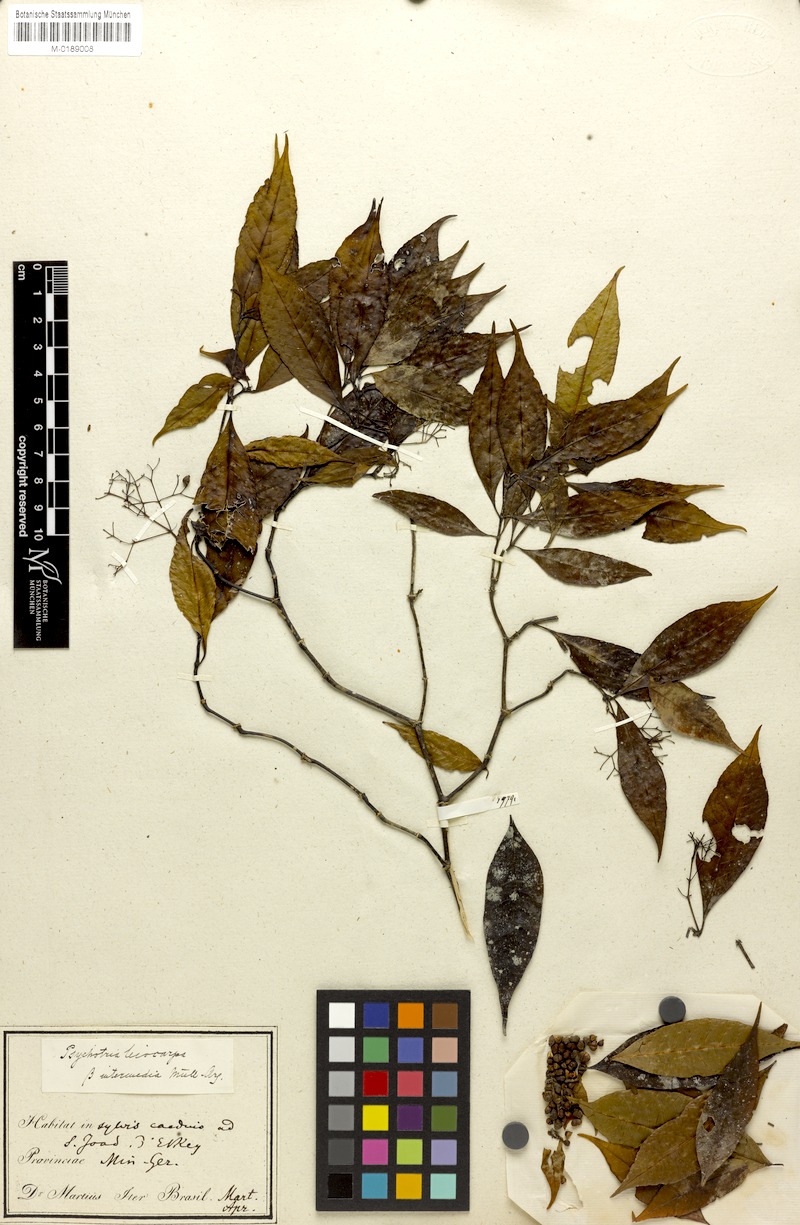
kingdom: Plantae
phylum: Tracheophyta
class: Magnoliopsida
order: Gentianales
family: Rubiaceae
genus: Psychotria
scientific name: Psychotria leiocarpa
